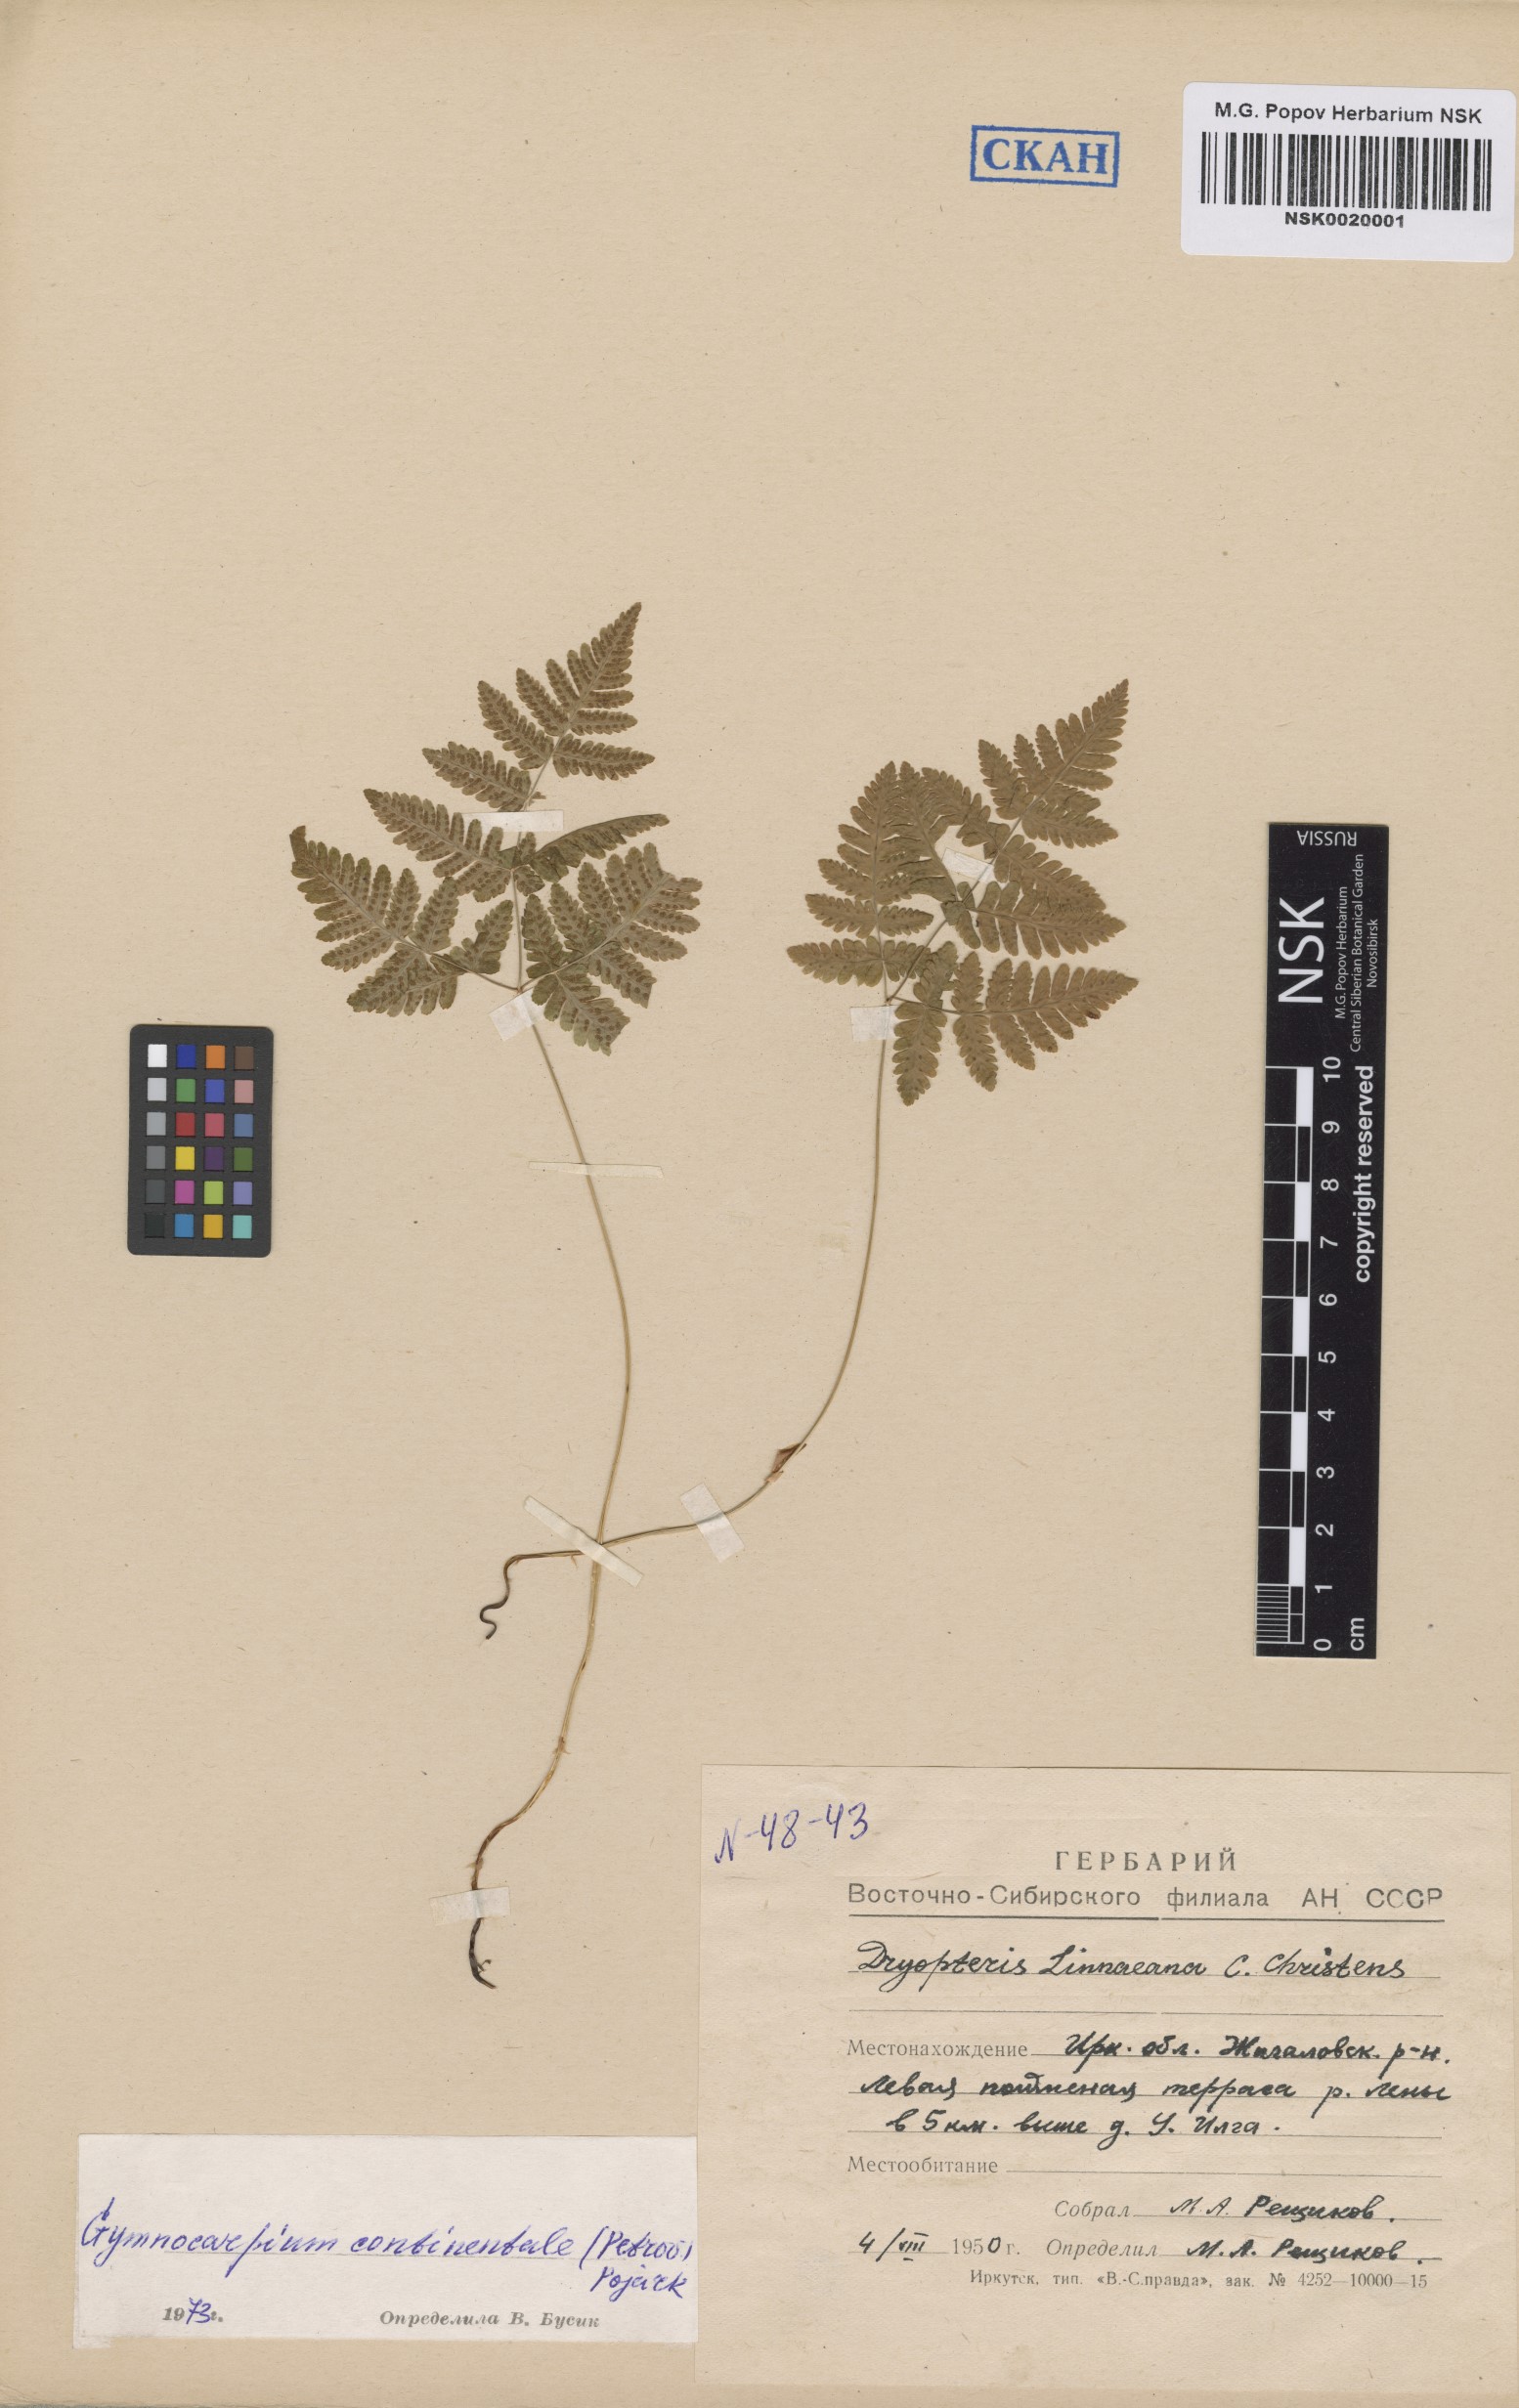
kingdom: Plantae
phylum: Tracheophyta
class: Polypodiopsida
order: Polypodiales
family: Cystopteridaceae
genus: Gymnocarpium
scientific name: Gymnocarpium continentale
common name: Asian oak fern
